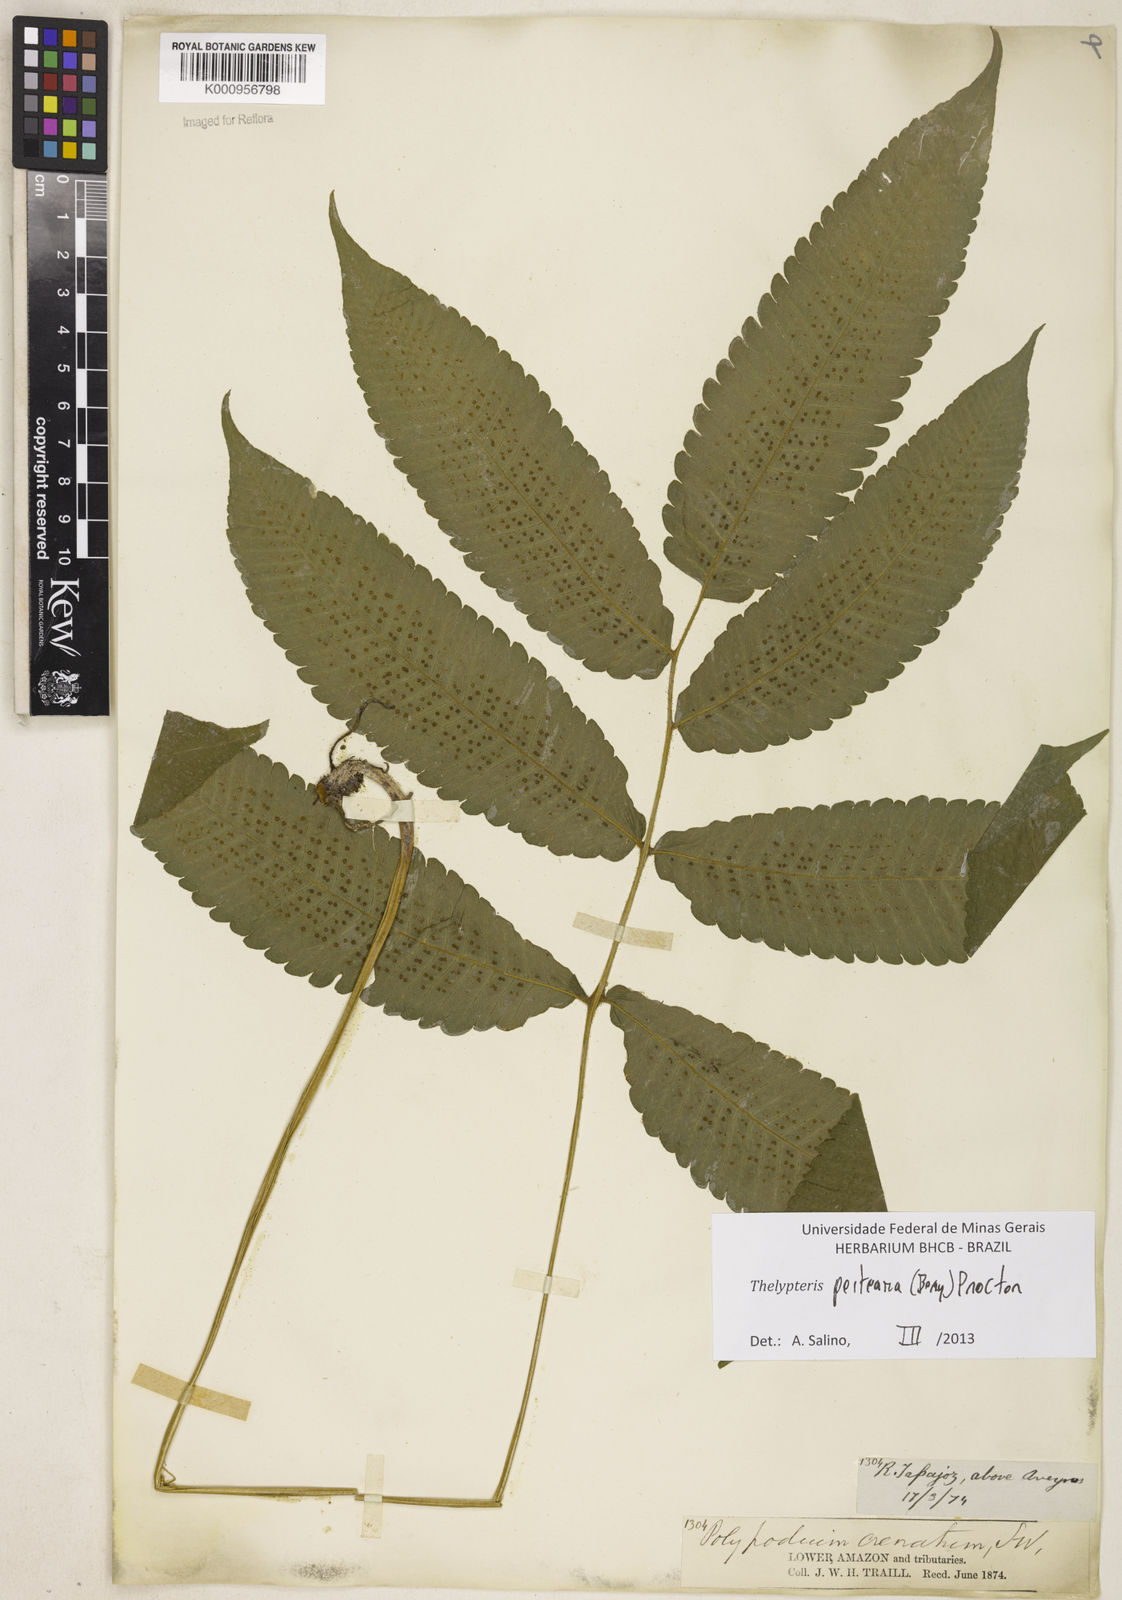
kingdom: Plantae
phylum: Tracheophyta
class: Polypodiopsida
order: Polypodiales
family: Thelypteridaceae
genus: Goniopteris
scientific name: Goniopteris poiteana
